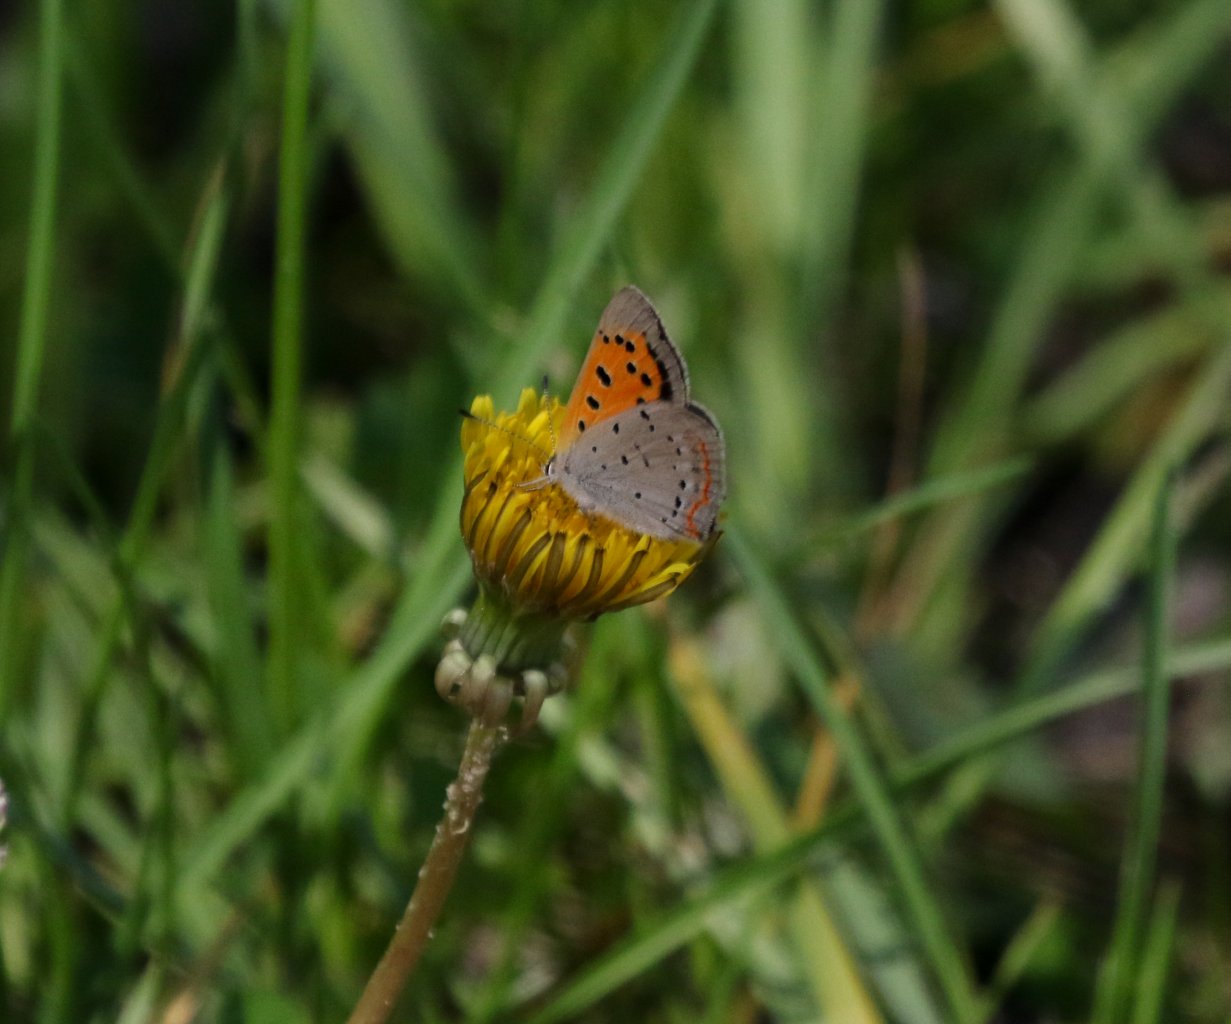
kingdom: Animalia
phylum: Arthropoda
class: Insecta
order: Lepidoptera
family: Lycaenidae
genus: Lycaena
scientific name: Lycaena phlaeas
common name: American Copper
